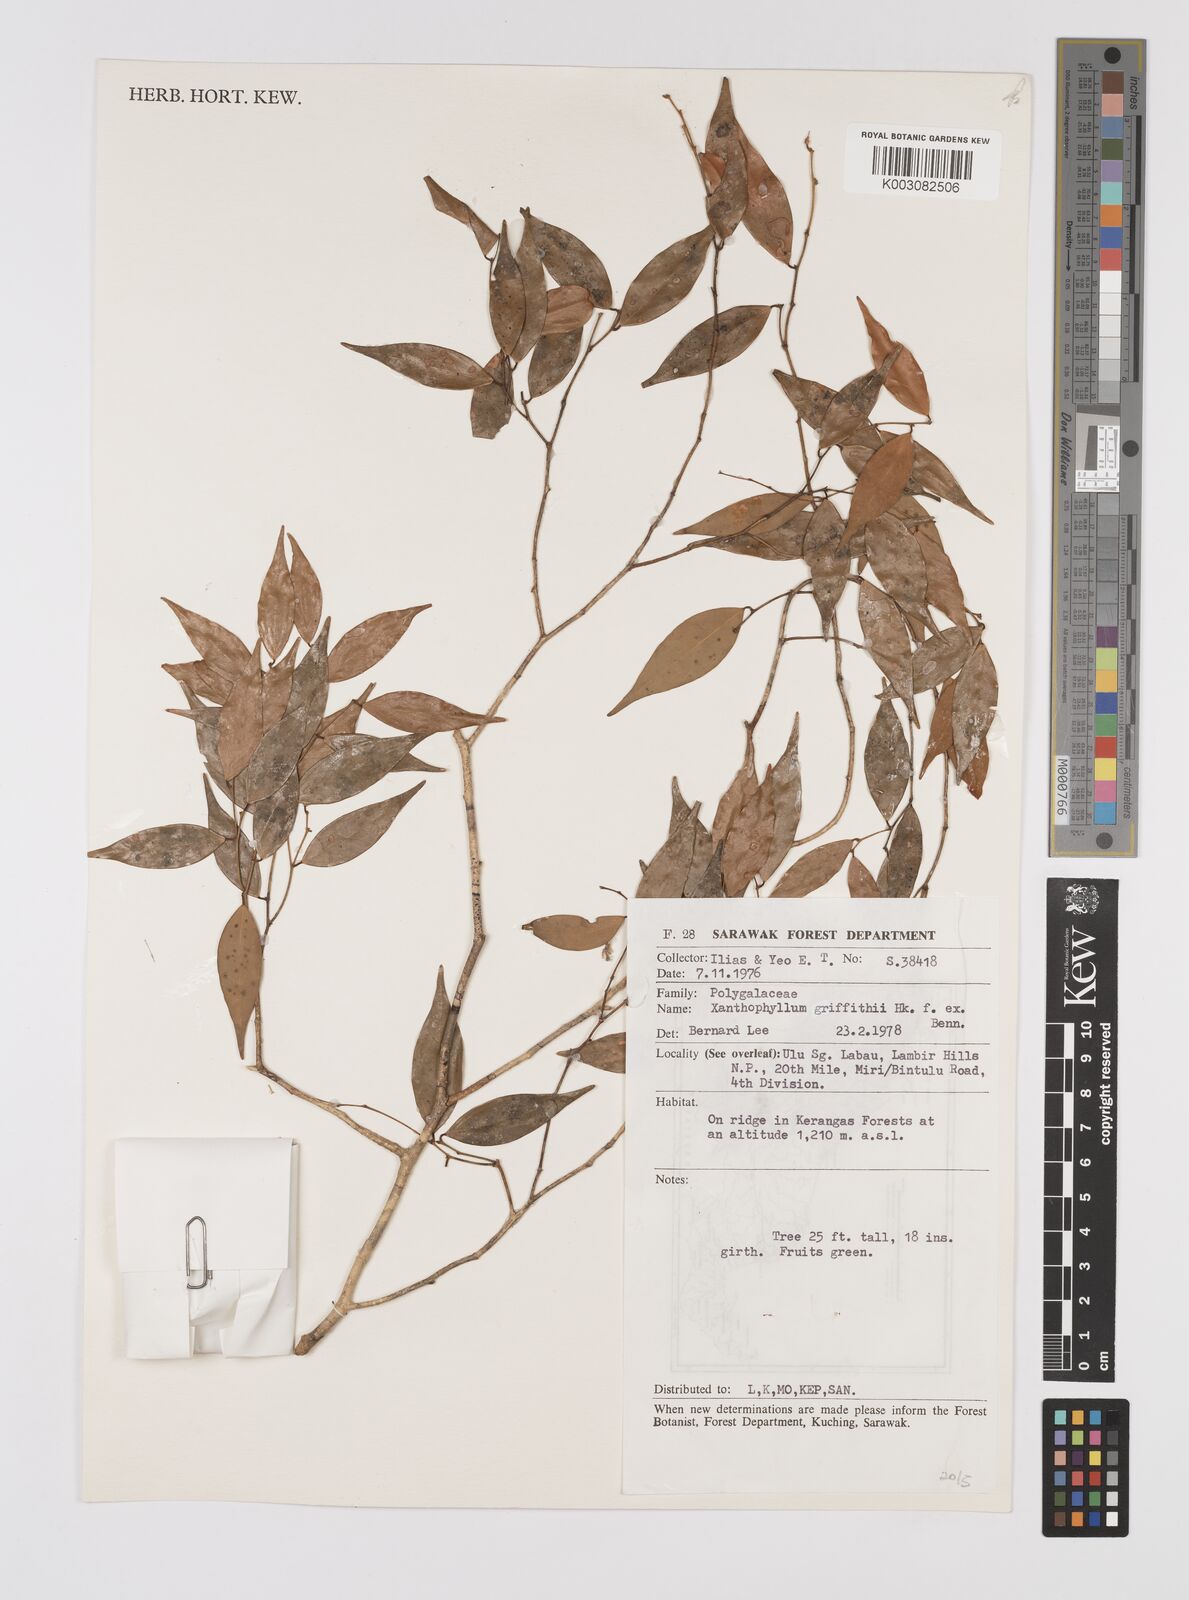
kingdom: Plantae
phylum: Tracheophyta
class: Magnoliopsida
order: Fabales
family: Polygalaceae
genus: Xanthophyllum
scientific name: Xanthophyllum griffithii
